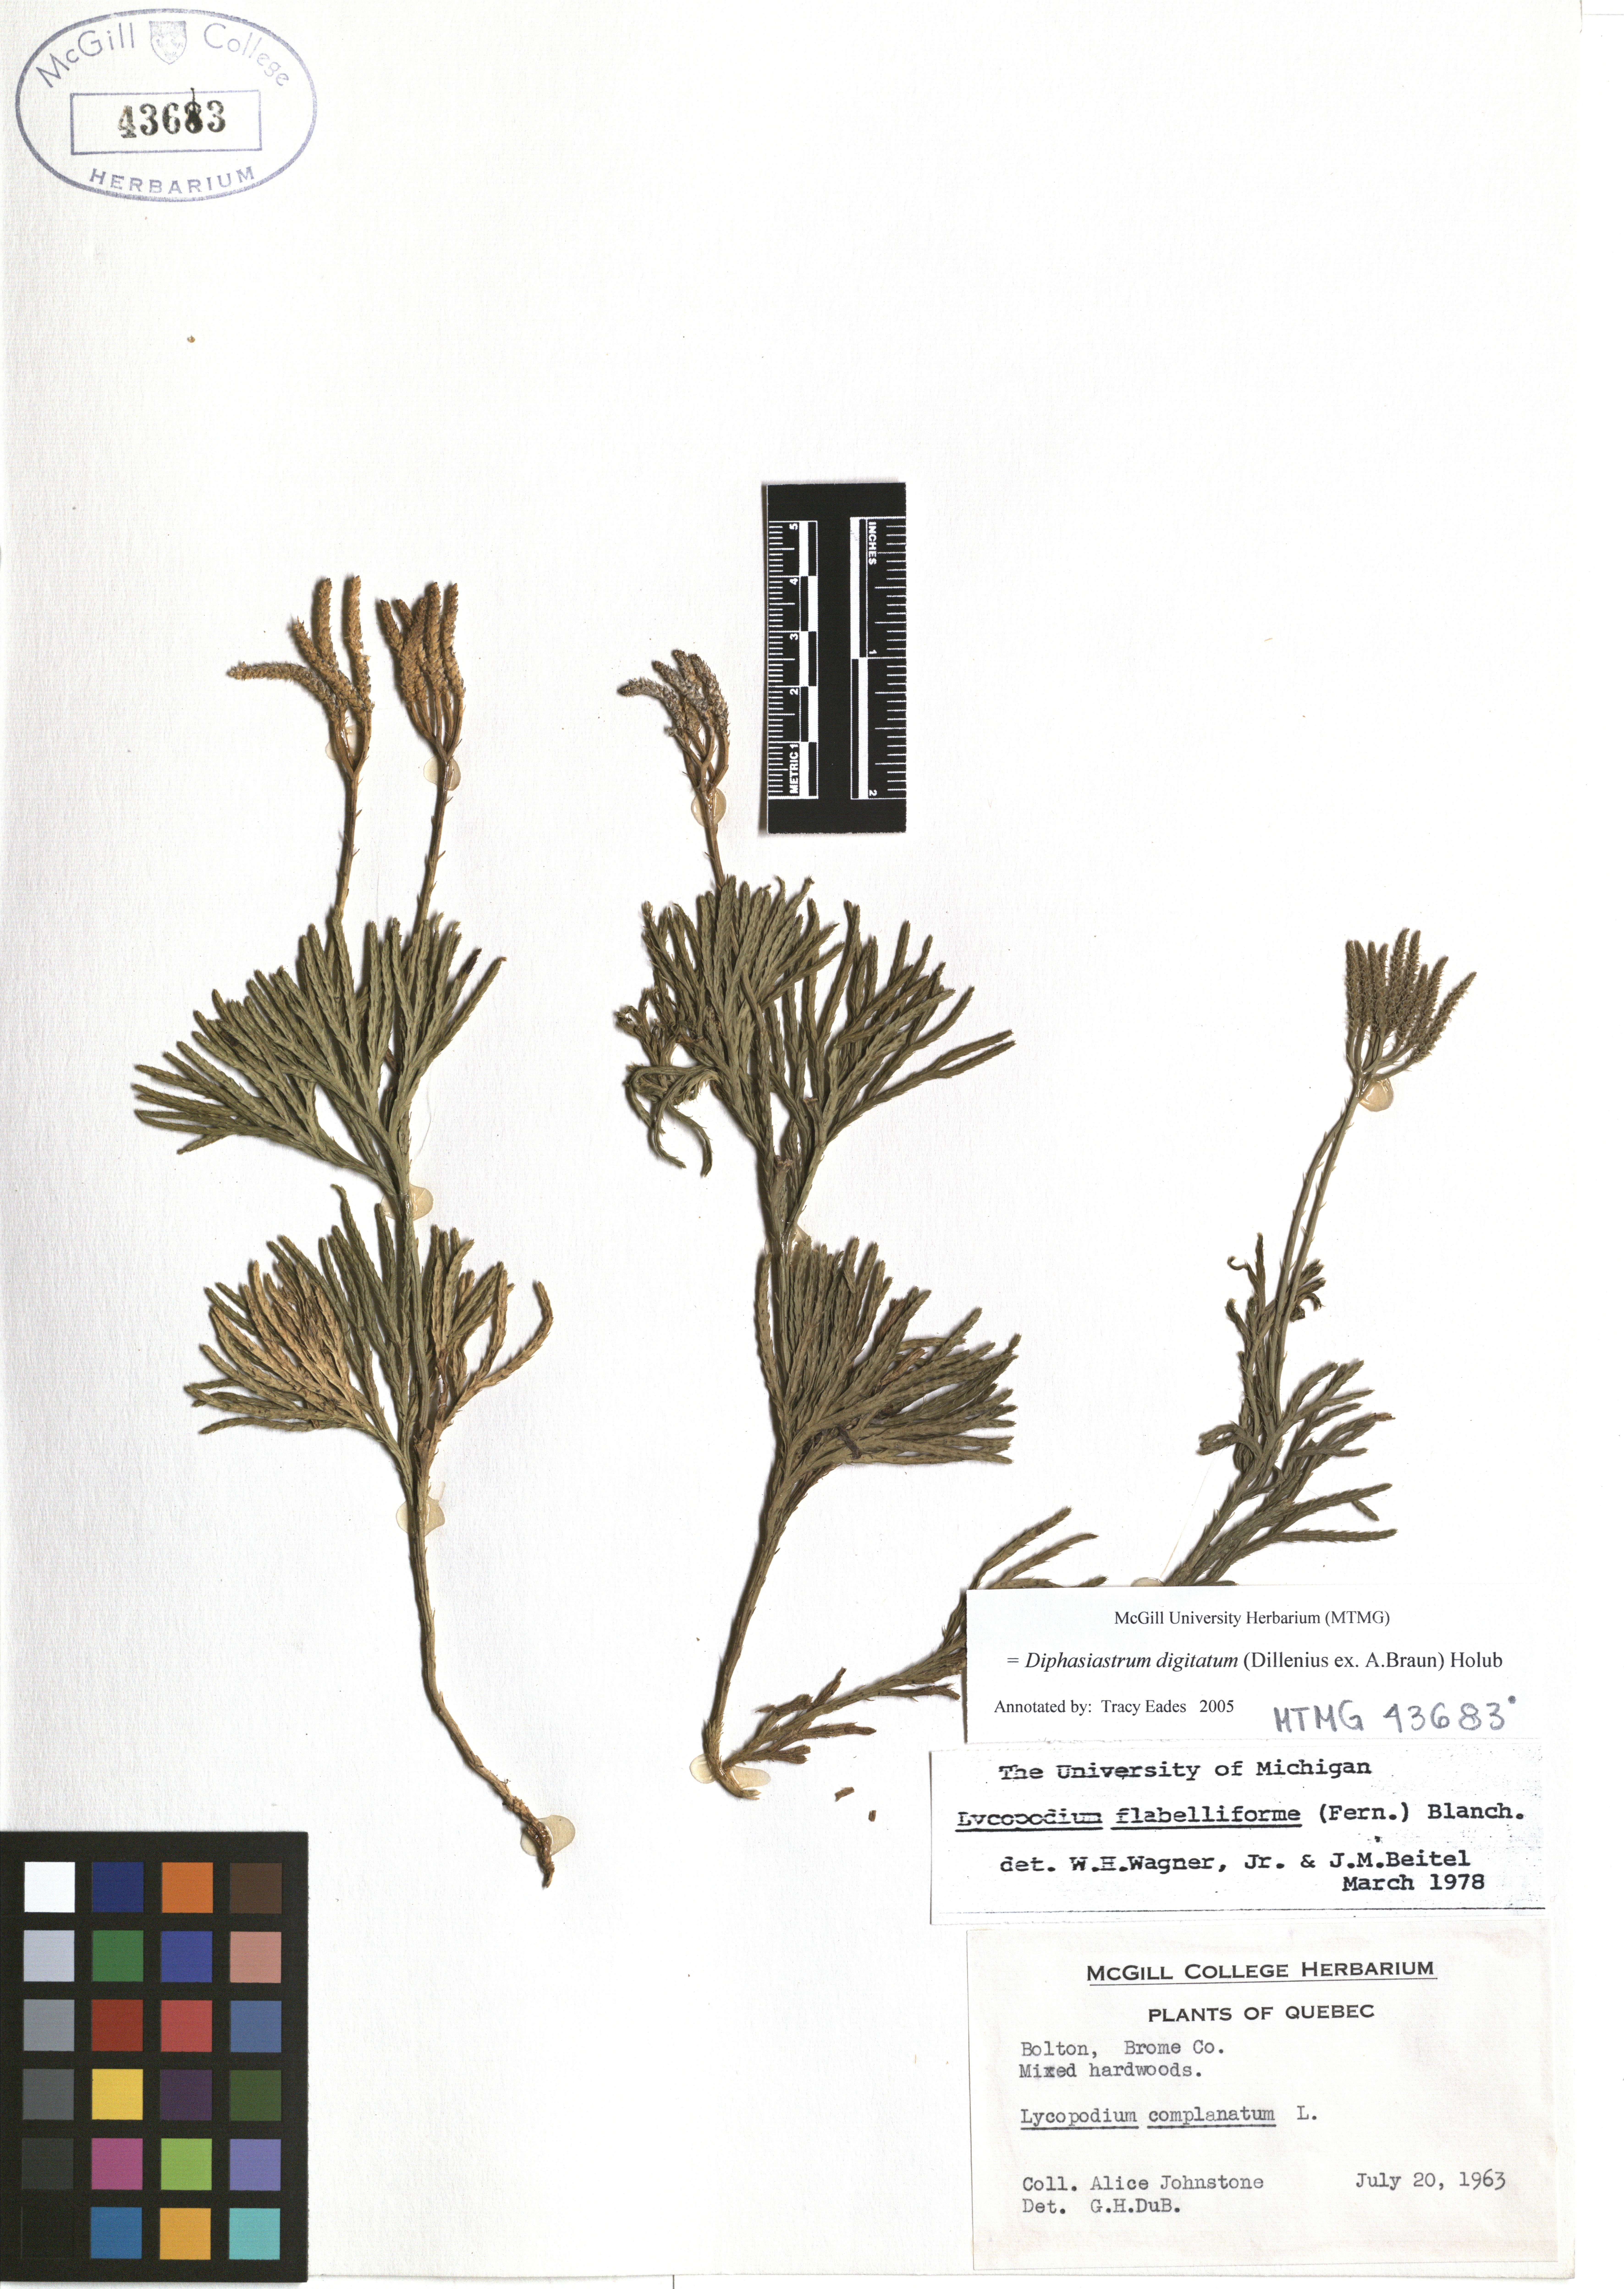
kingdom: Plantae
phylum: Tracheophyta
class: Lycopodiopsida
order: Lycopodiales
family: Lycopodiaceae
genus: Diphasiastrum
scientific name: Diphasiastrum digitatum
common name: Southern running-pine
